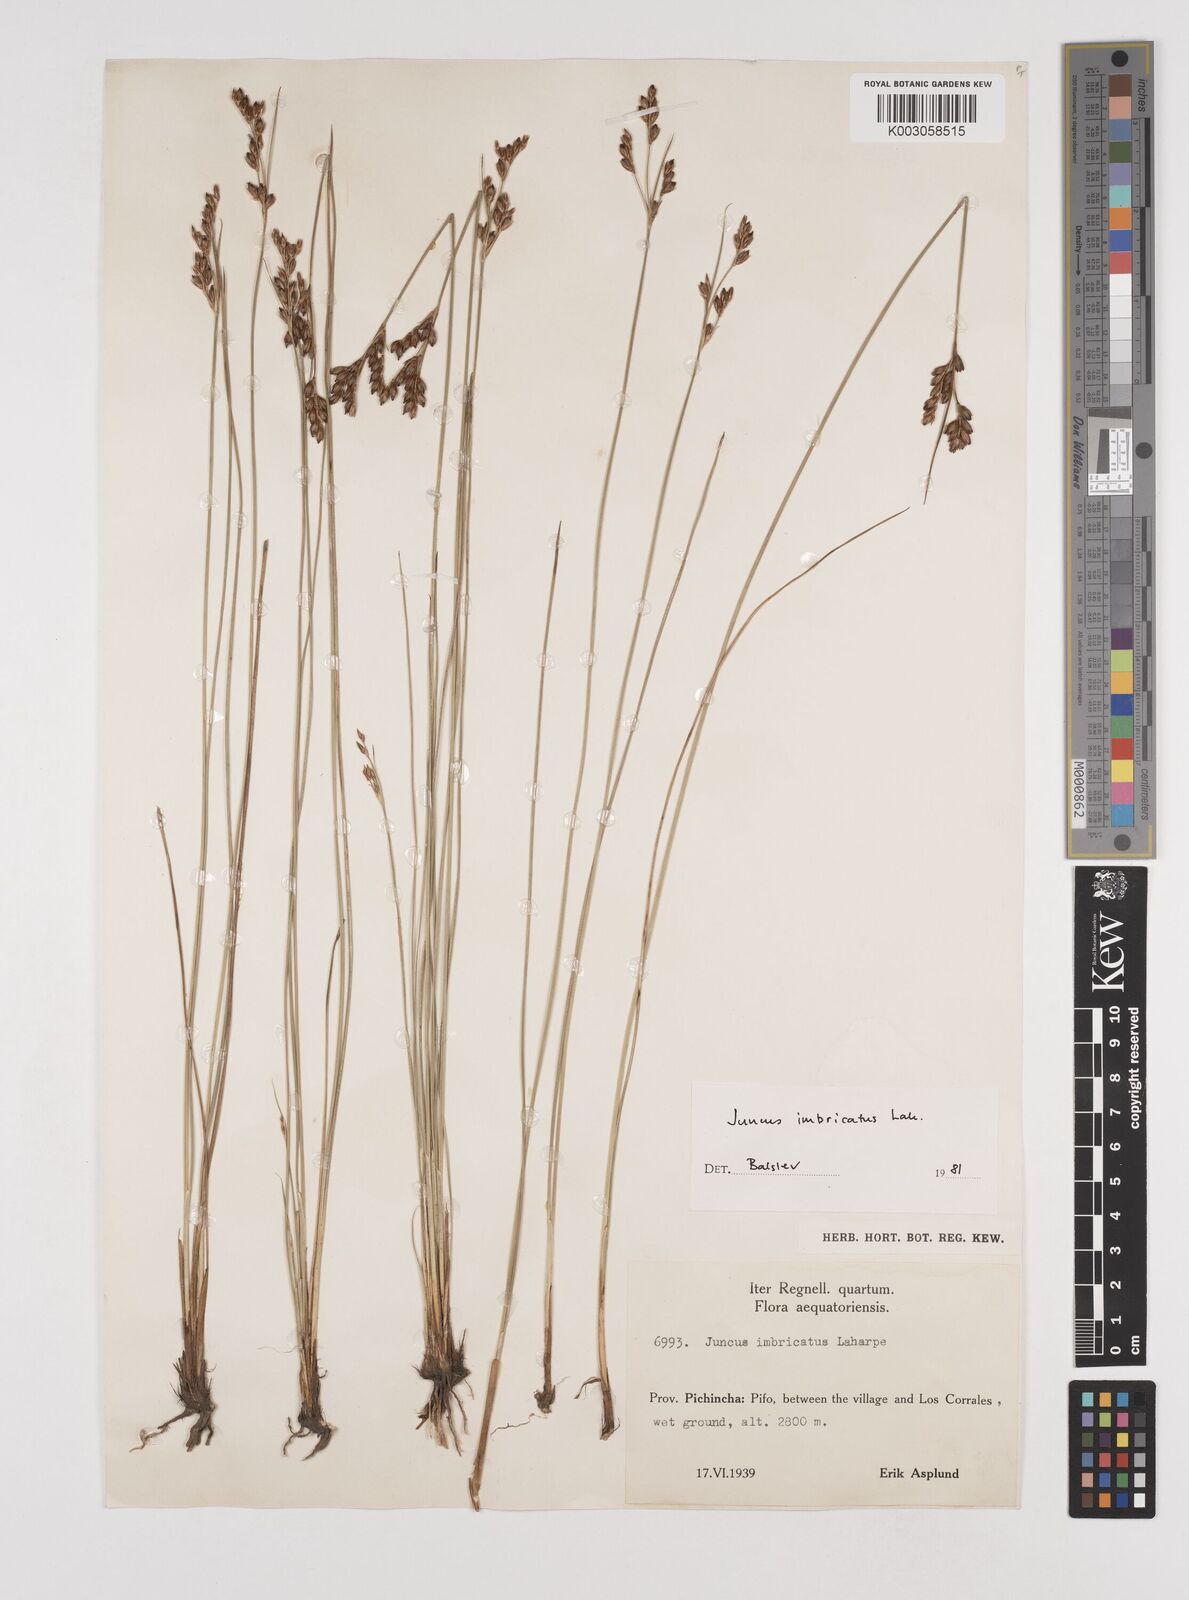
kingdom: Plantae
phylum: Tracheophyta
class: Liliopsida
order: Poales
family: Juncaceae
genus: Juncus
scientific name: Juncus imbricatus
